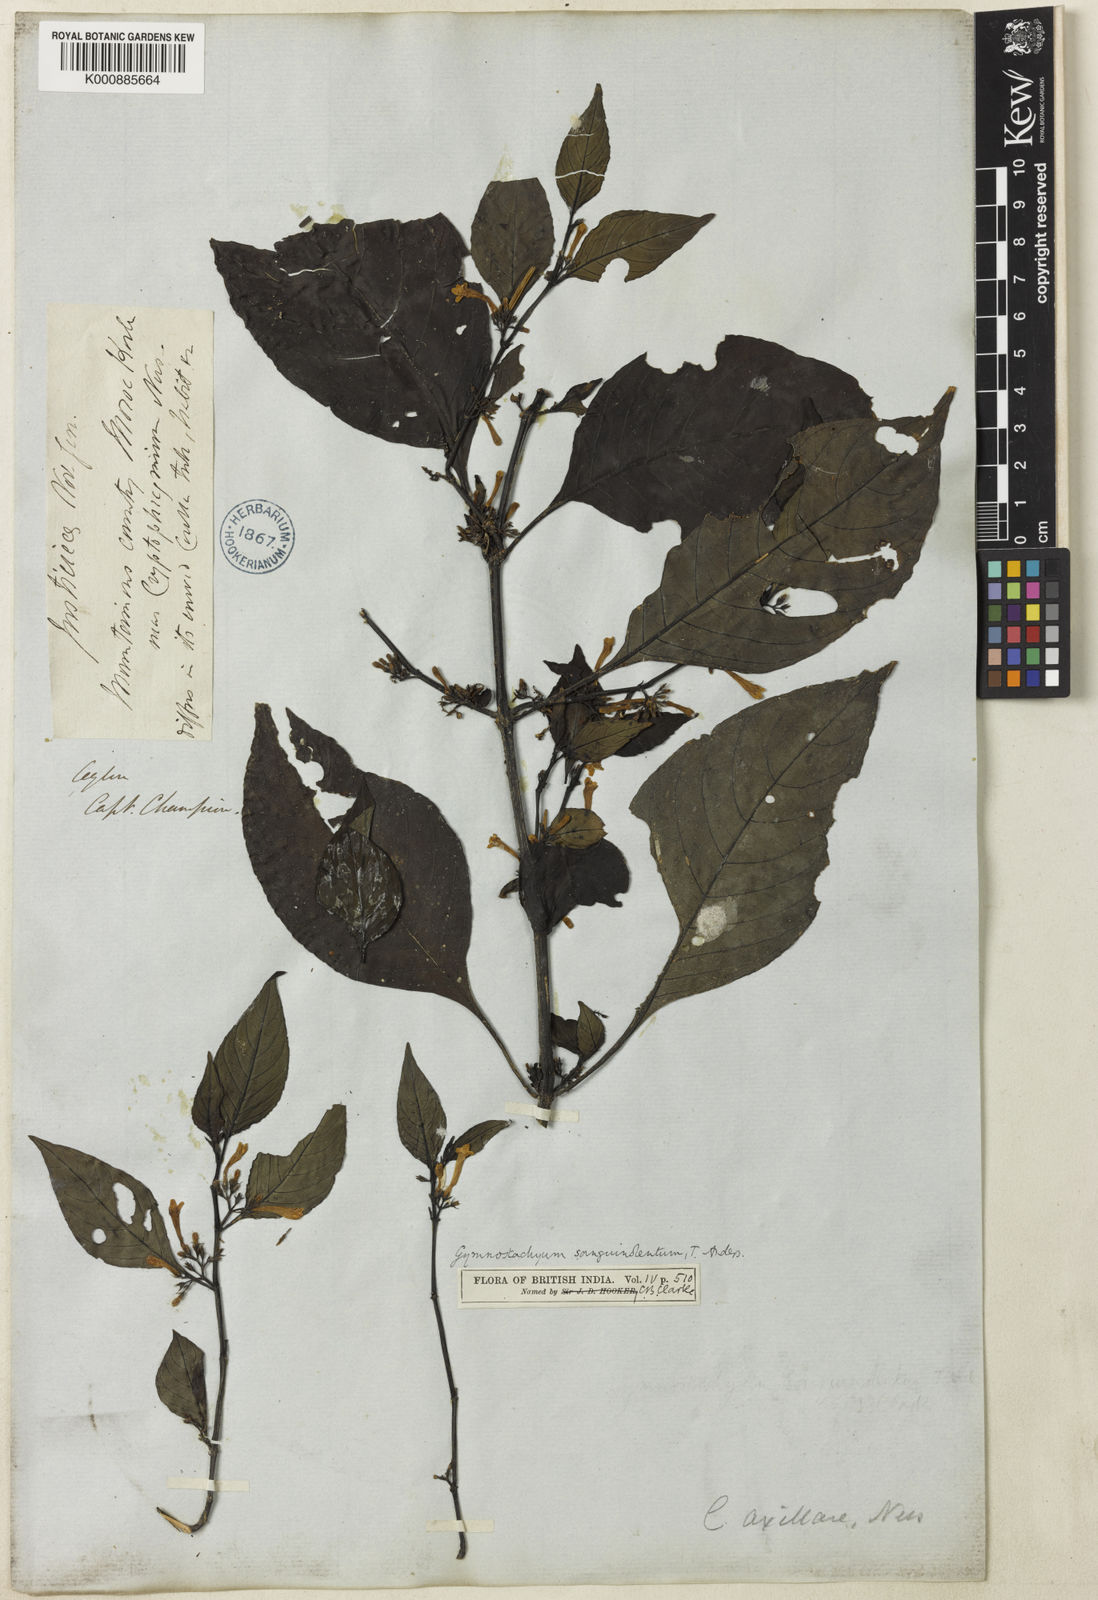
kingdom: Plantae
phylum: Tracheophyta
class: Magnoliopsida
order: Lamiales
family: Acanthaceae
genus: Gymnostachyum
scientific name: Gymnostachyum sanguinolentum
